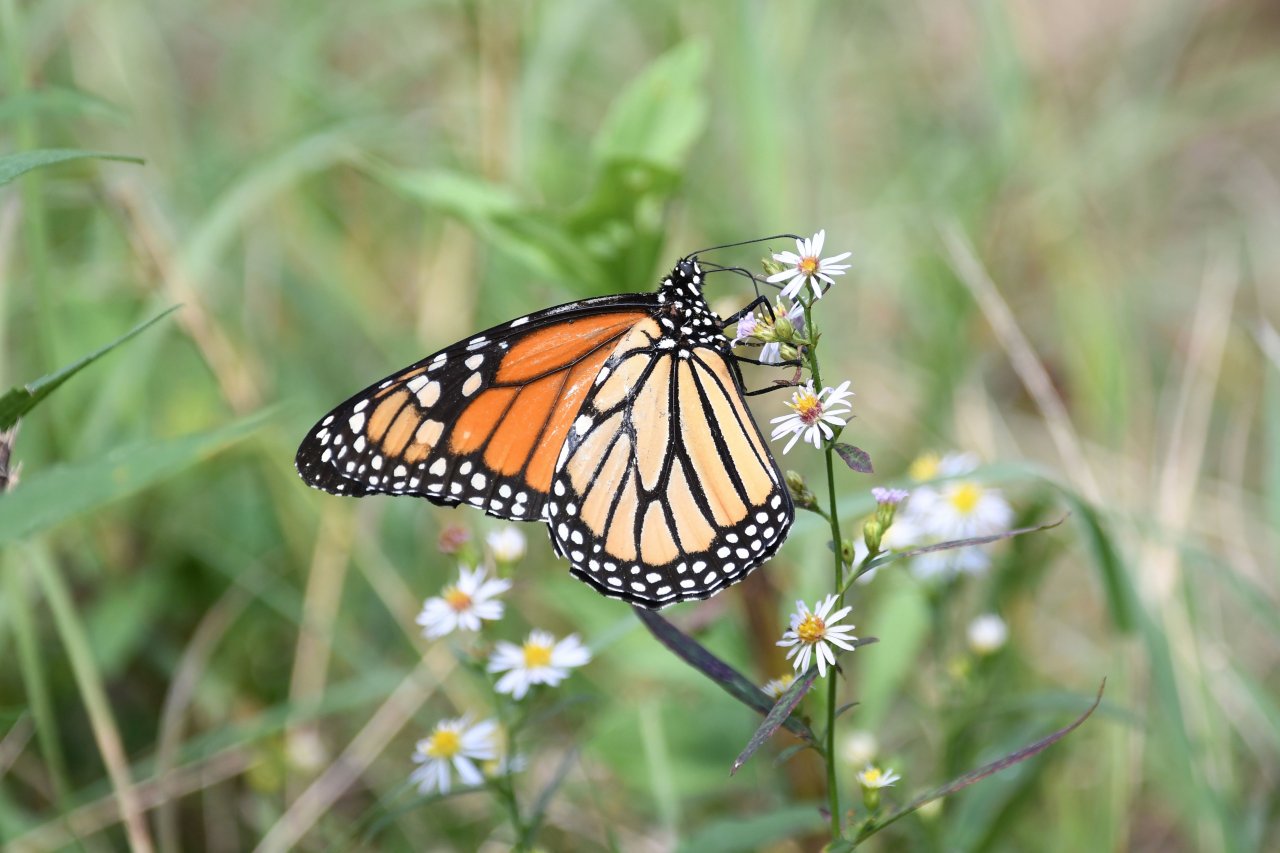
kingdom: Animalia
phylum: Arthropoda
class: Insecta
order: Lepidoptera
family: Nymphalidae
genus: Danaus
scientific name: Danaus plexippus
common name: Monarch
